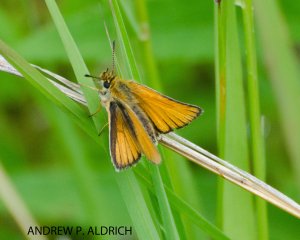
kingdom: Animalia
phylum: Arthropoda
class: Insecta
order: Lepidoptera
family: Hesperiidae
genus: Thymelicus
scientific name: Thymelicus lineola
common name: European Skipper
